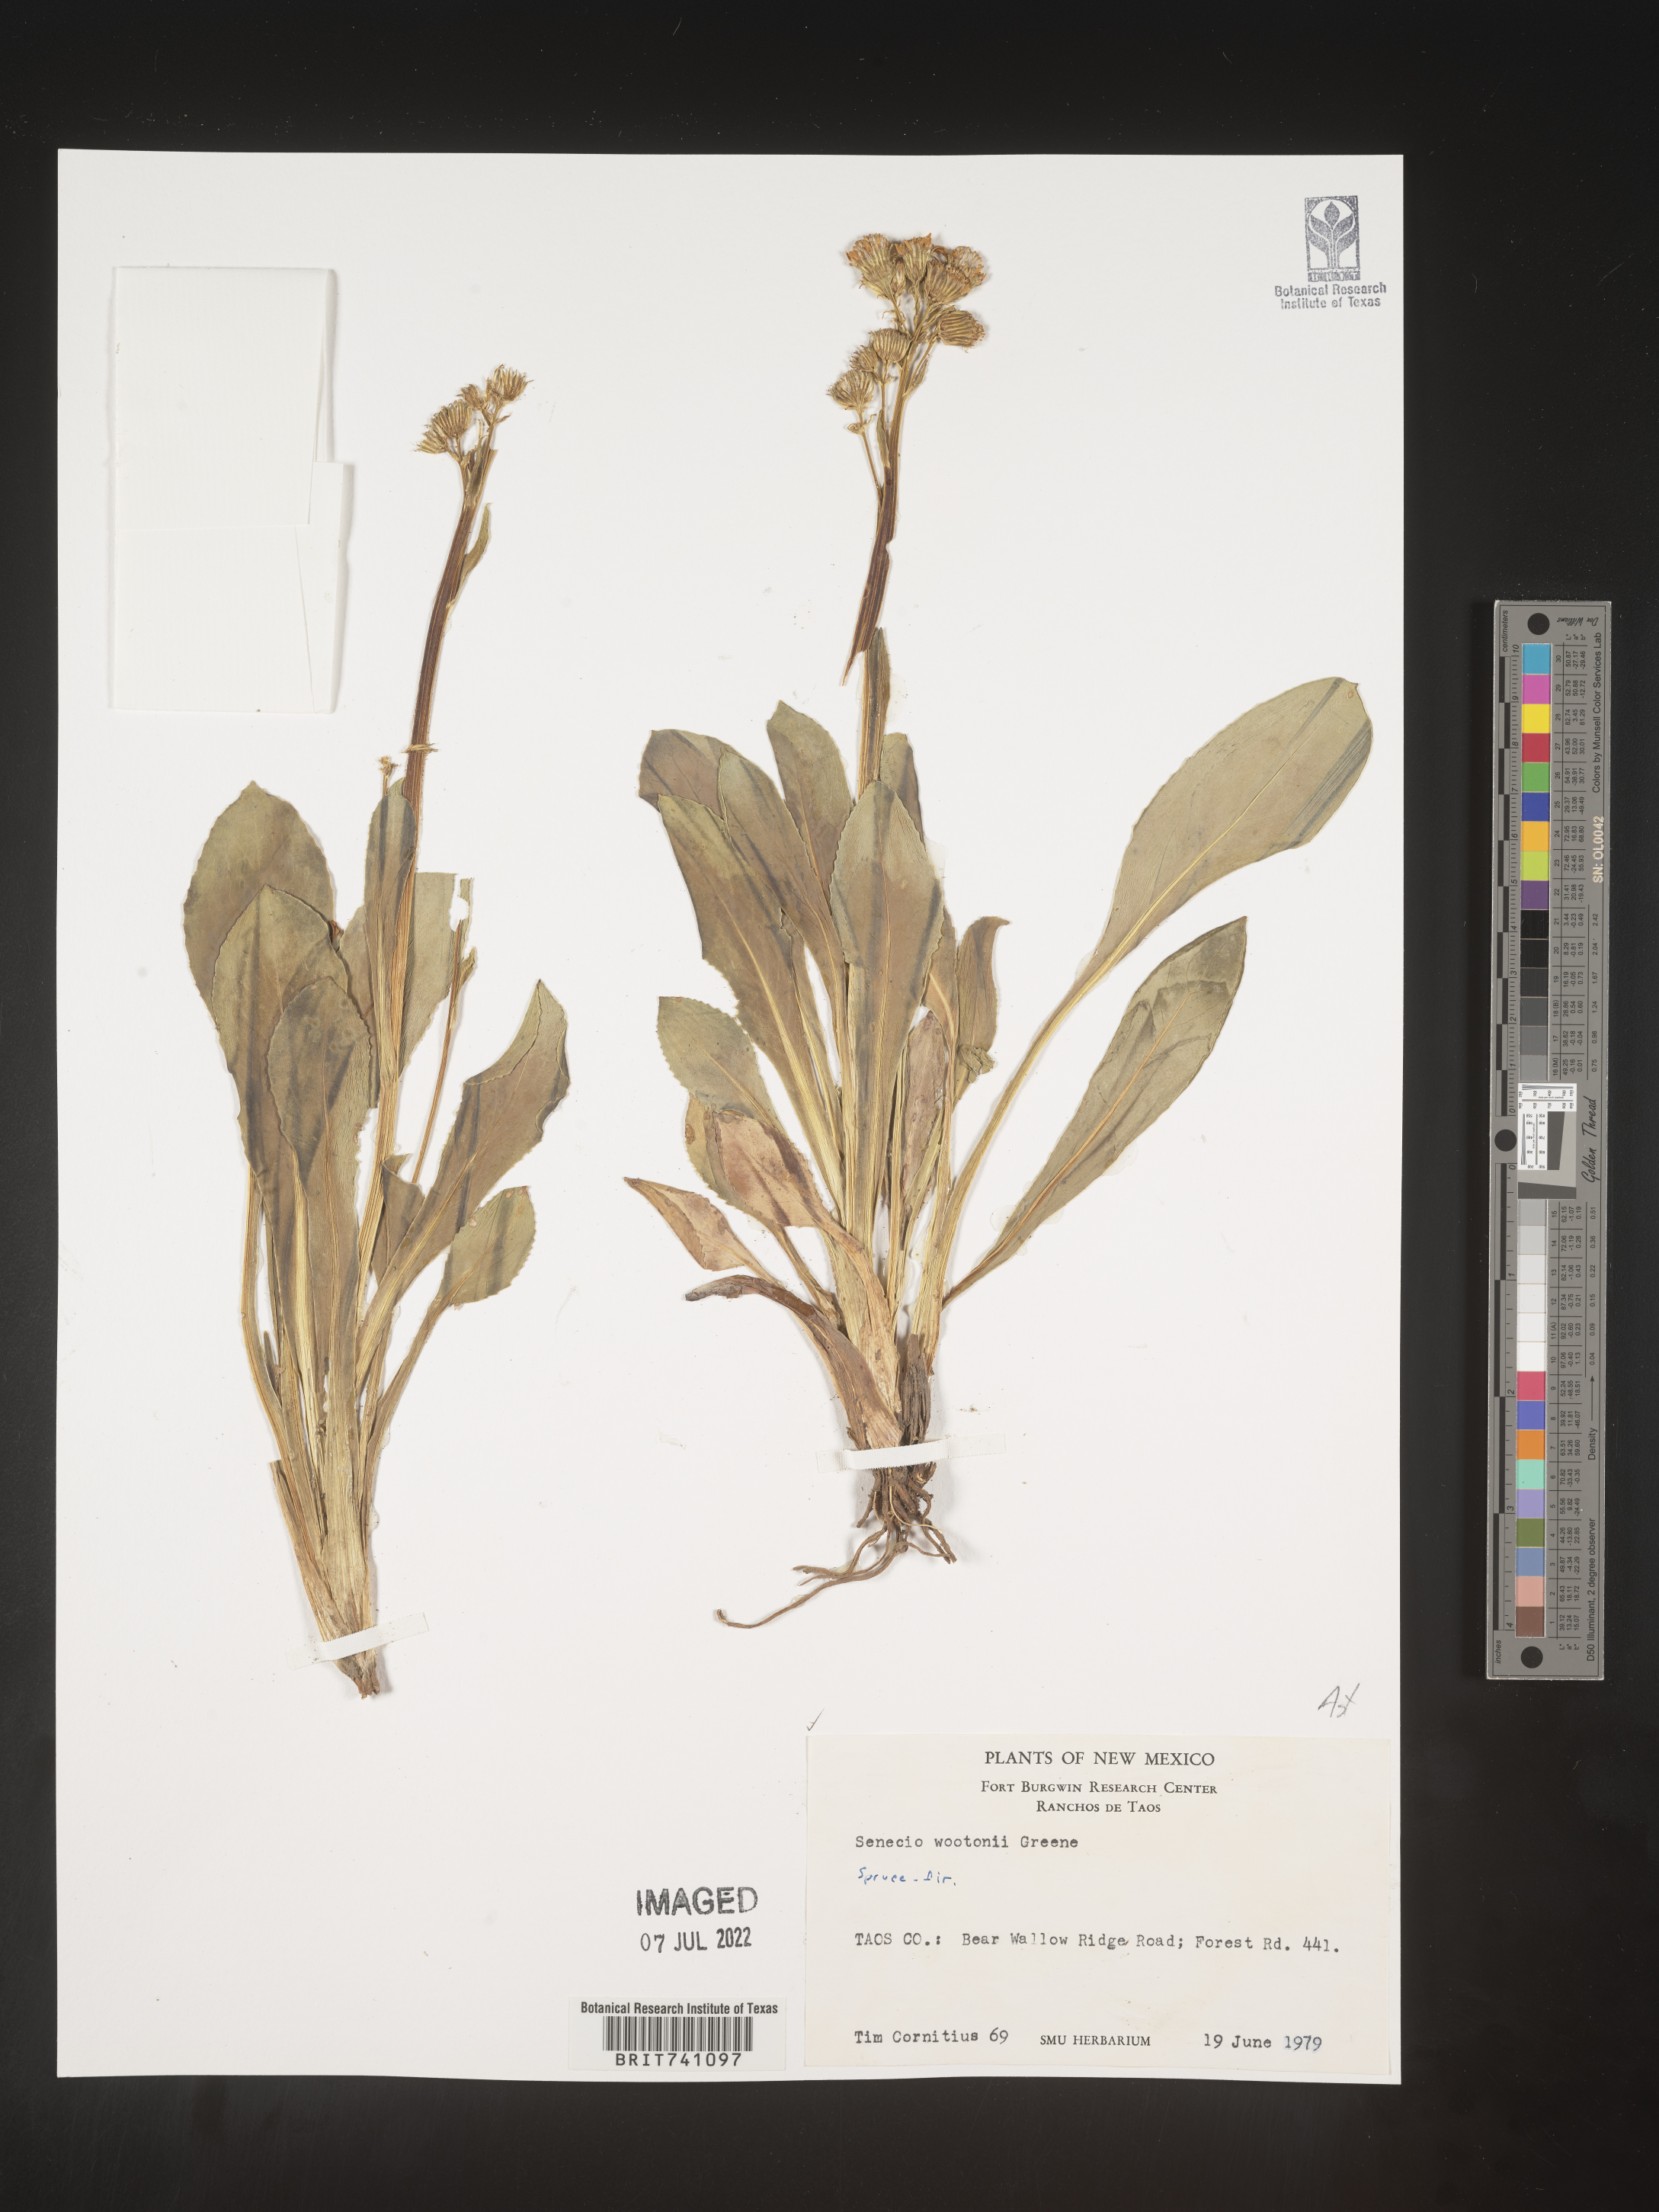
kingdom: Plantae
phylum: Tracheophyta
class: Magnoliopsida
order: Asterales
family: Asteraceae
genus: Senecio
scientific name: Senecio wootonii
